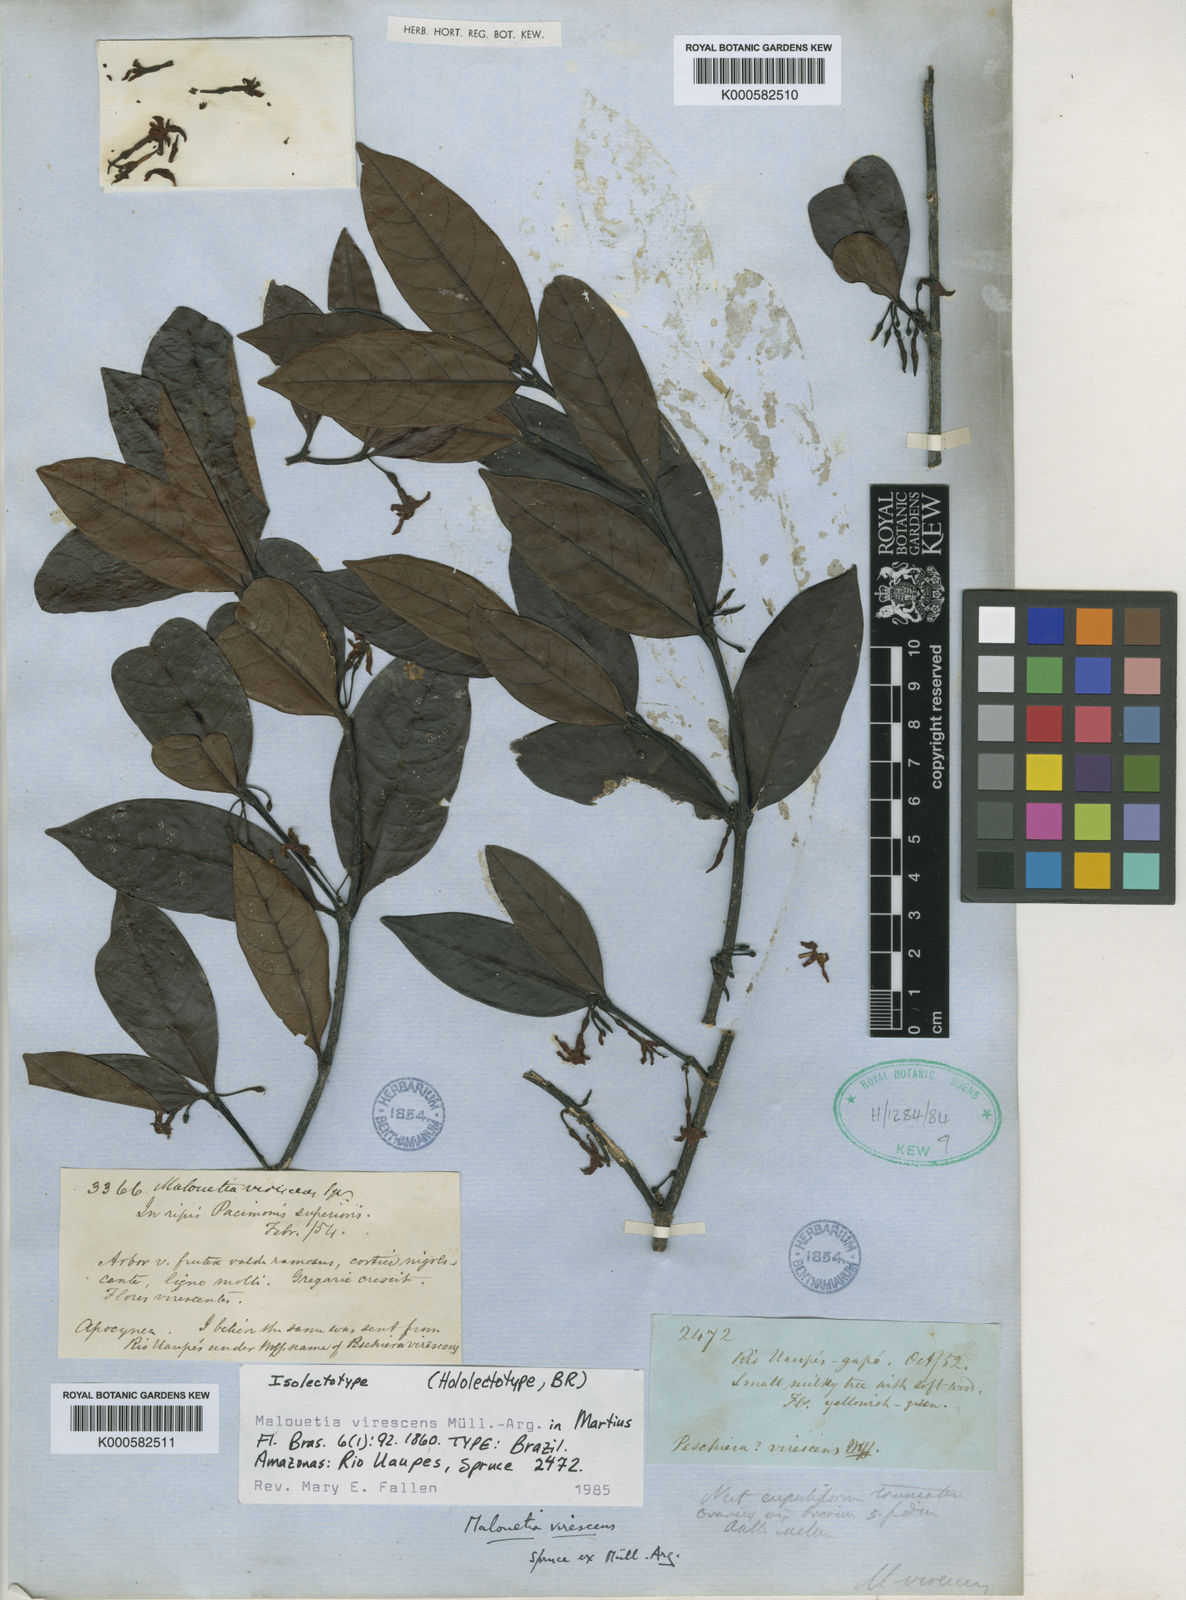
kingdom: Plantae
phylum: Tracheophyta
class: Magnoliopsida
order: Gentianales
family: Apocynaceae
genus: Malouetia
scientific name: Malouetia
